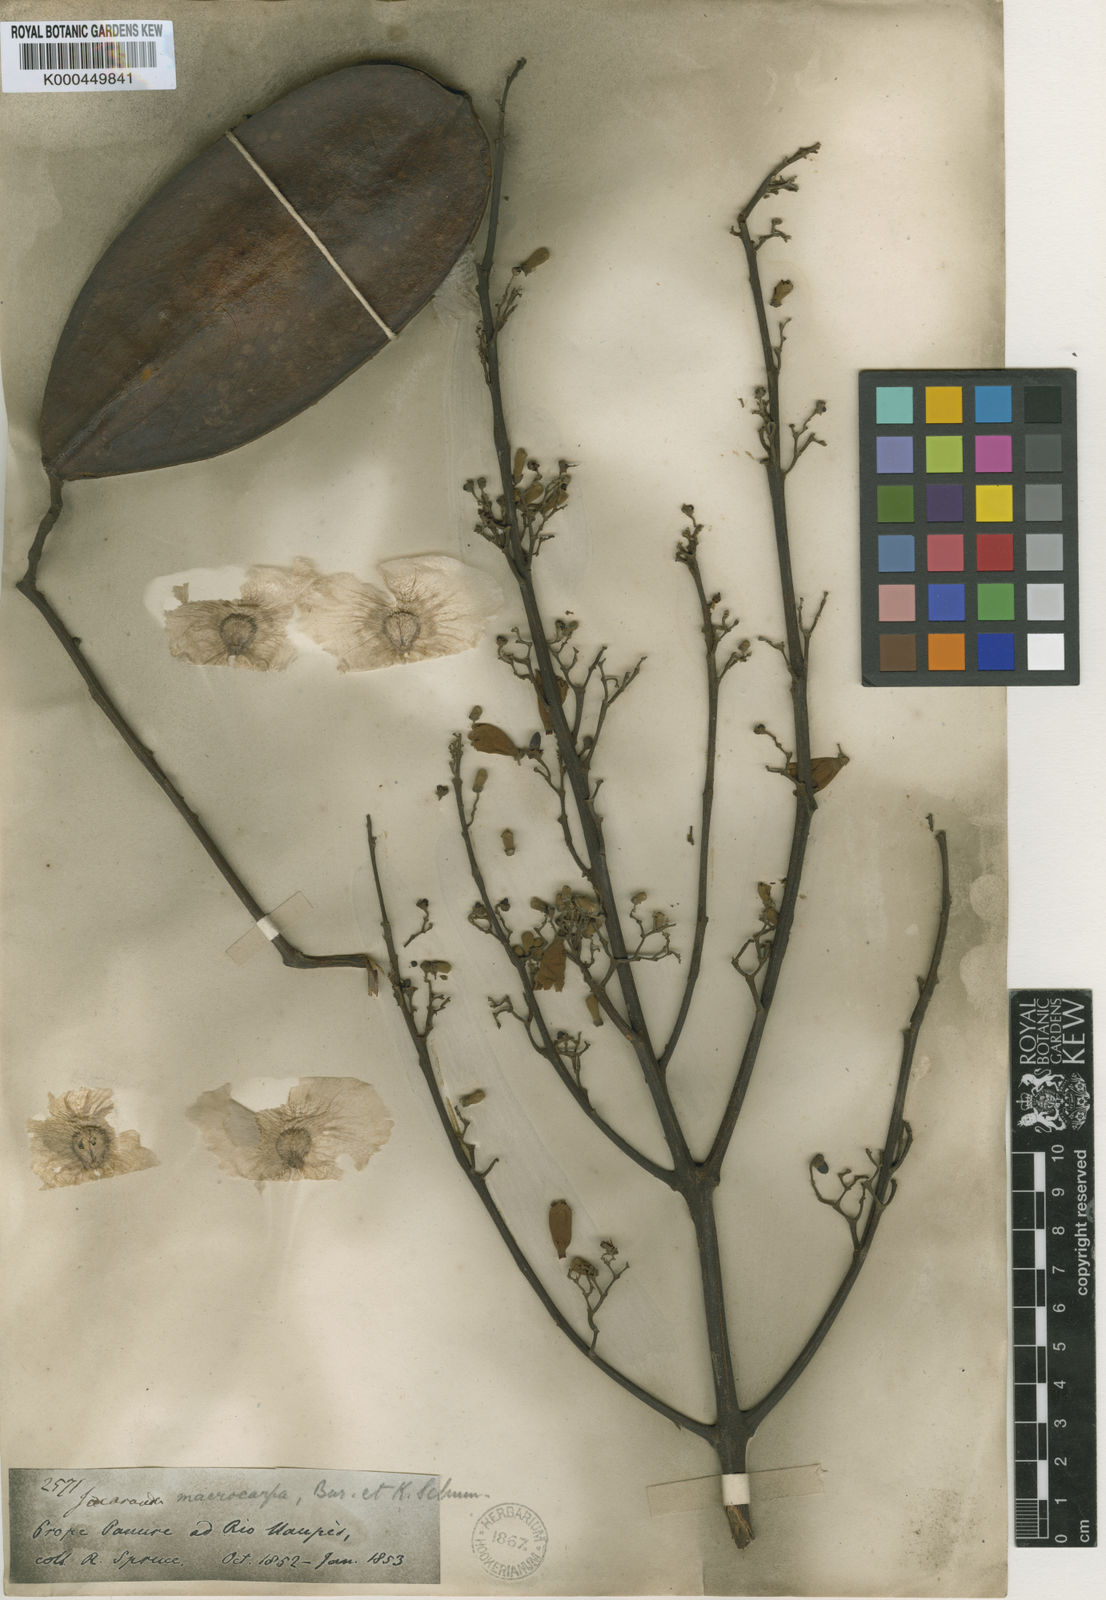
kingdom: Plantae
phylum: Tracheophyta
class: Magnoliopsida
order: Lamiales
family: Bignoniaceae
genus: Jacaranda
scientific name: Jacaranda macrocarpa
